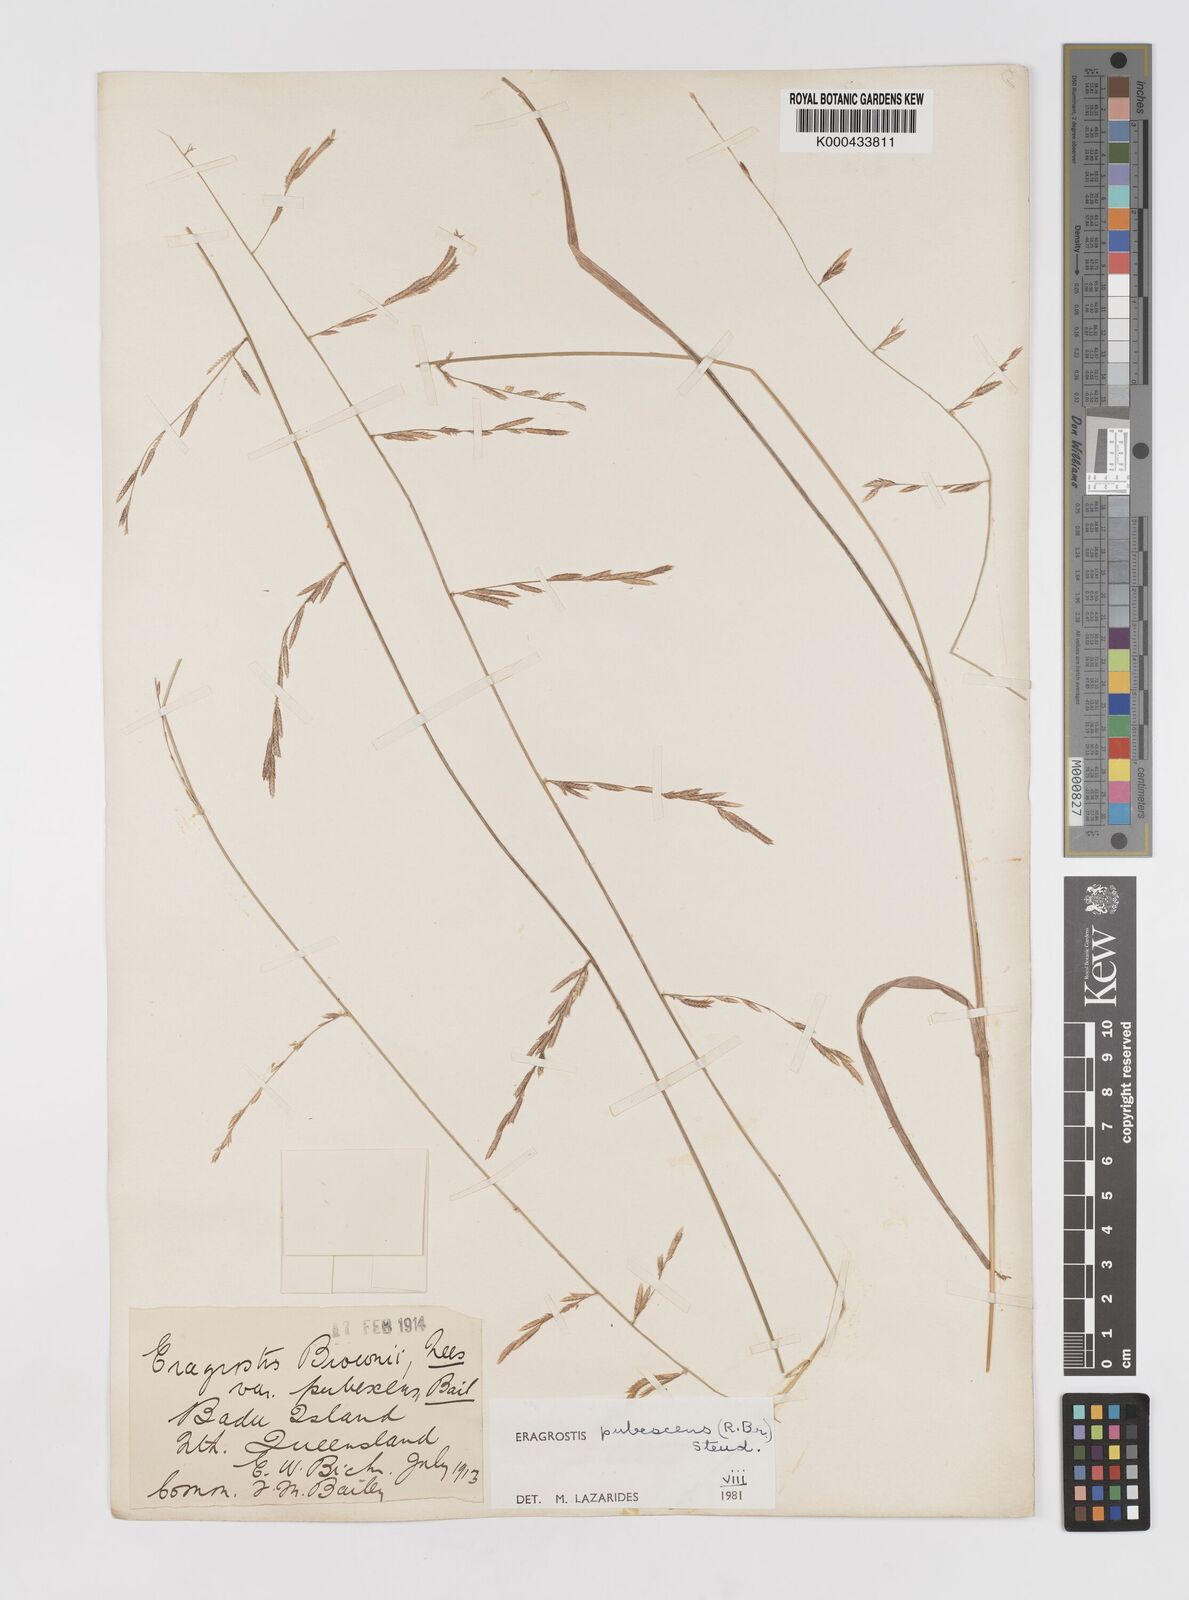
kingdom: Plantae
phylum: Tracheophyta
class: Liliopsida
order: Poales
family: Poaceae
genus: Eragrostis
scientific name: Eragrostis pubescens
